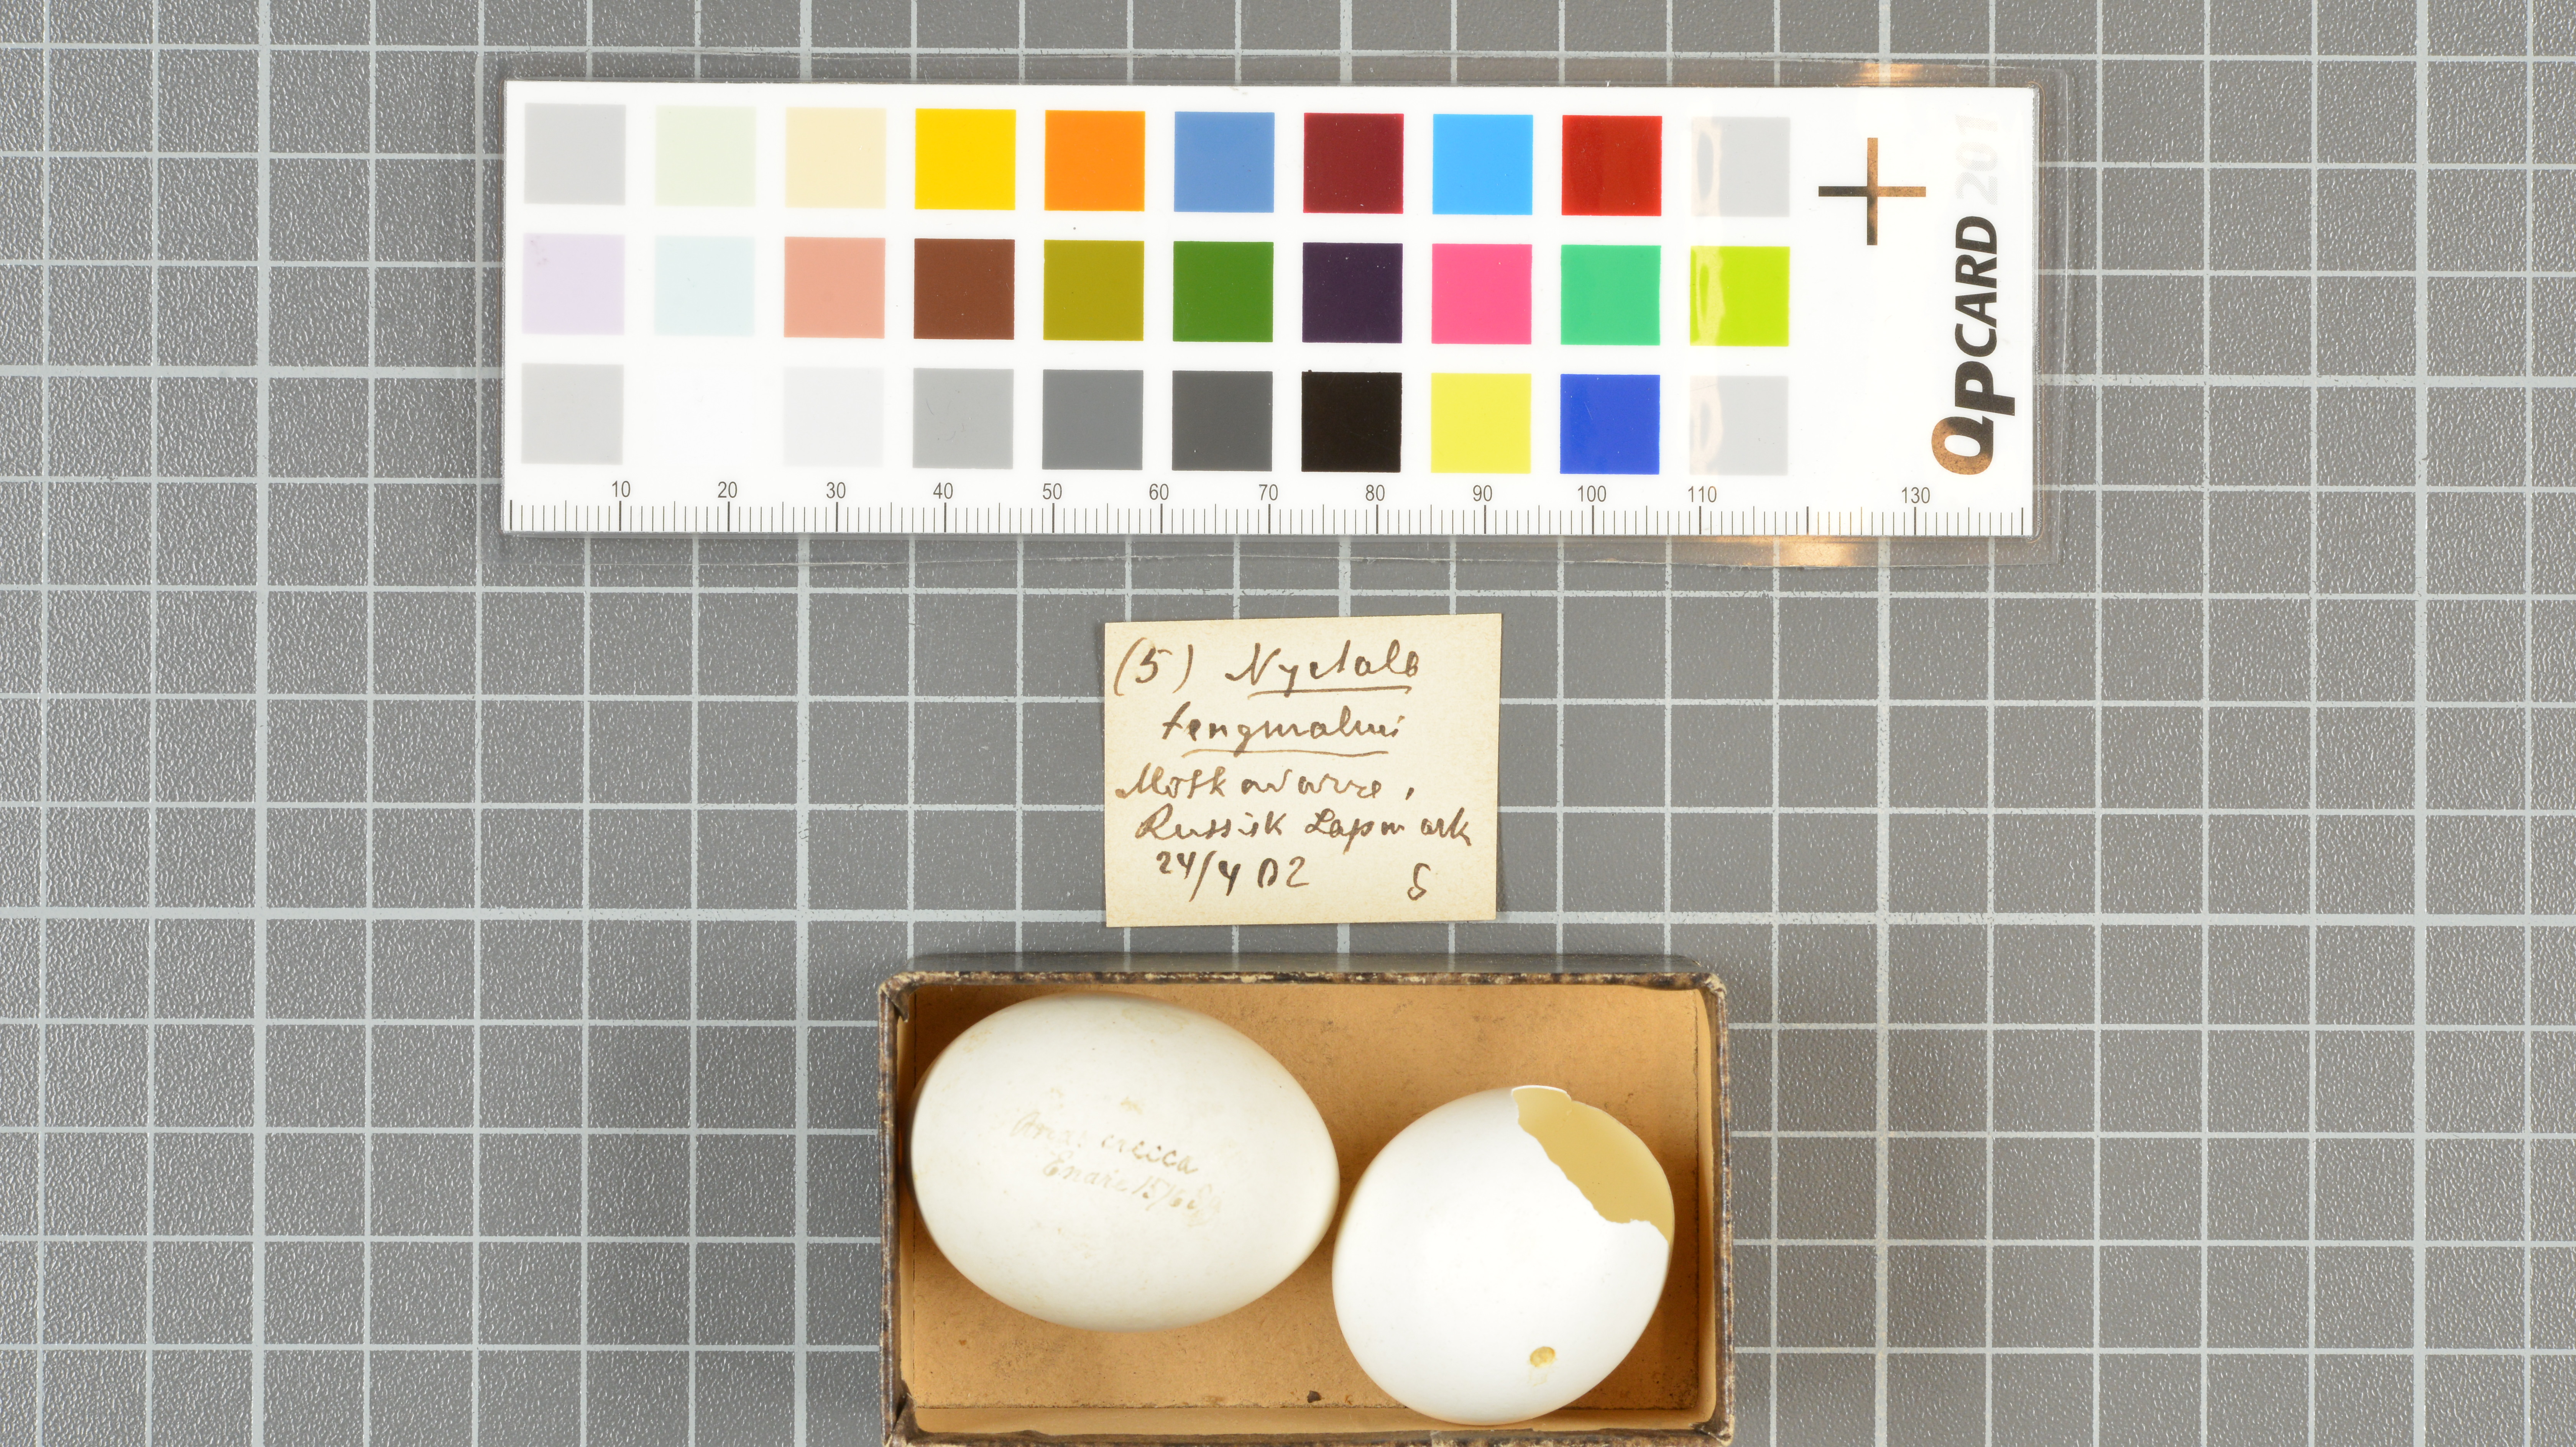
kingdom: Animalia
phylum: Chordata
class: Aves
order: Anseriformes
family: Anatidae
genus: Anas
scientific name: Anas crecca
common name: Eurasian teal
